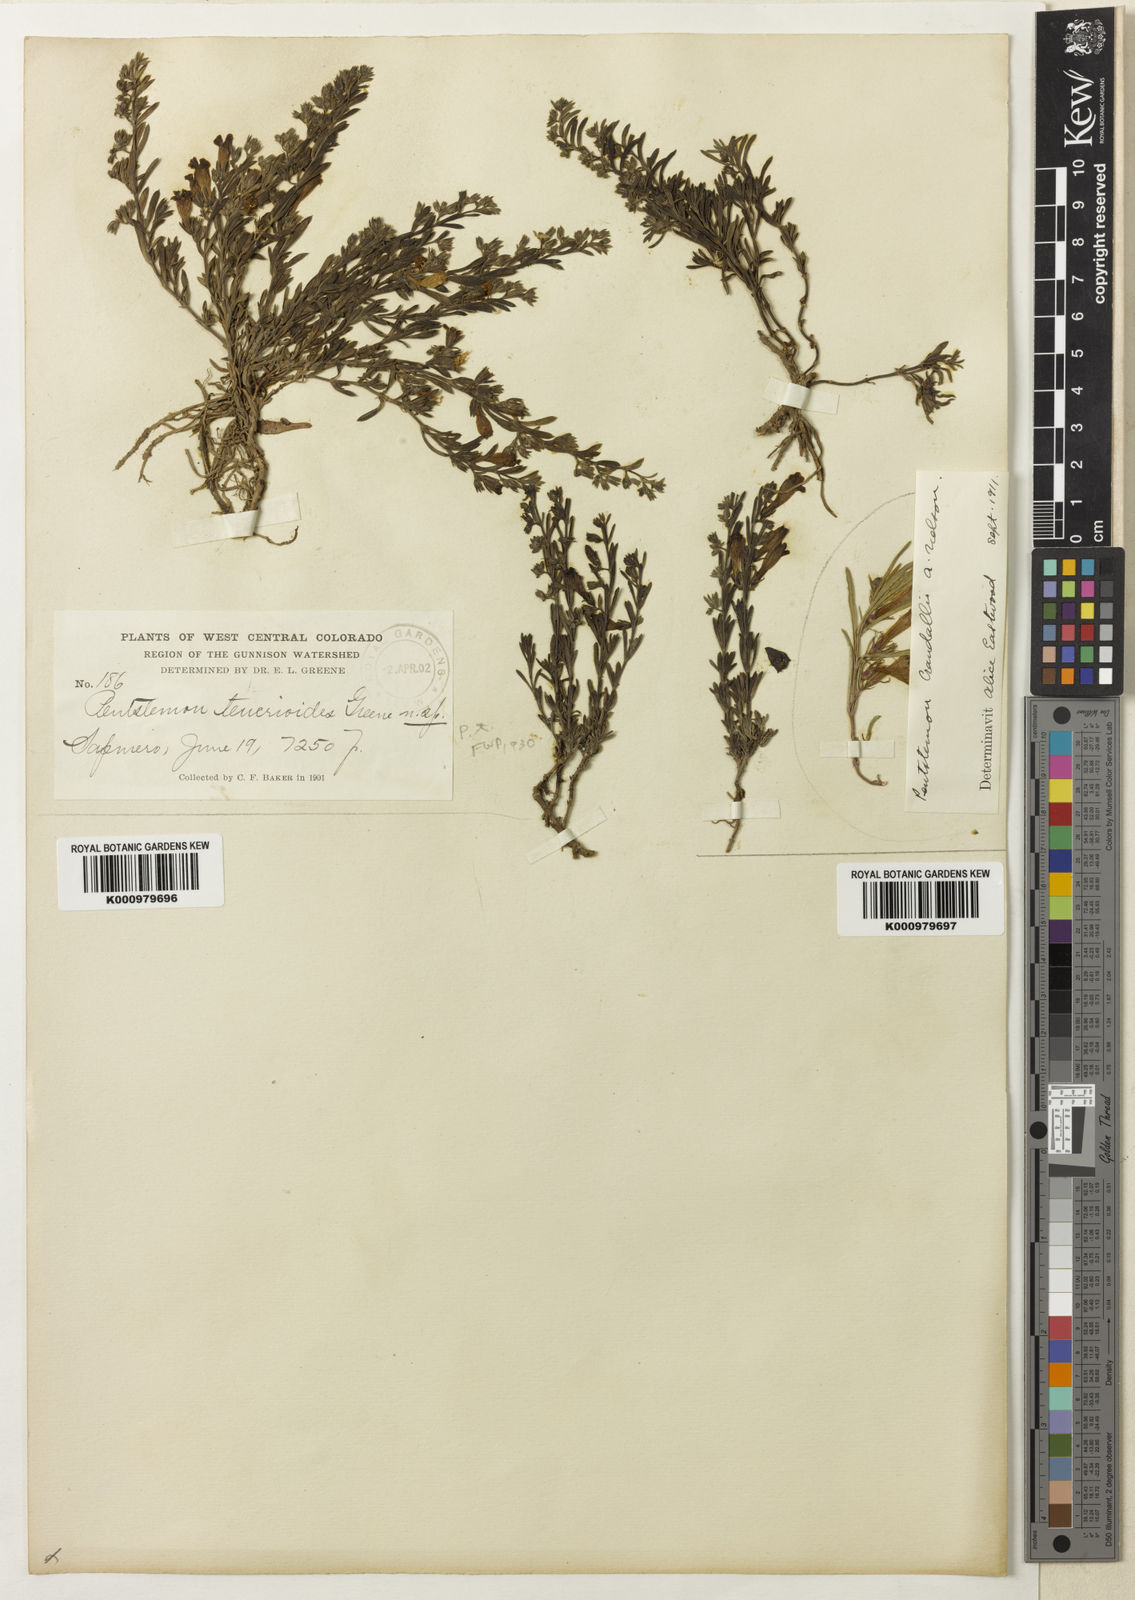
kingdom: Plantae
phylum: Tracheophyta
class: Magnoliopsida
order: Lamiales
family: Plantaginaceae
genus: Penstemon
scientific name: Penstemon caespitosus
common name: Mat penstemon
